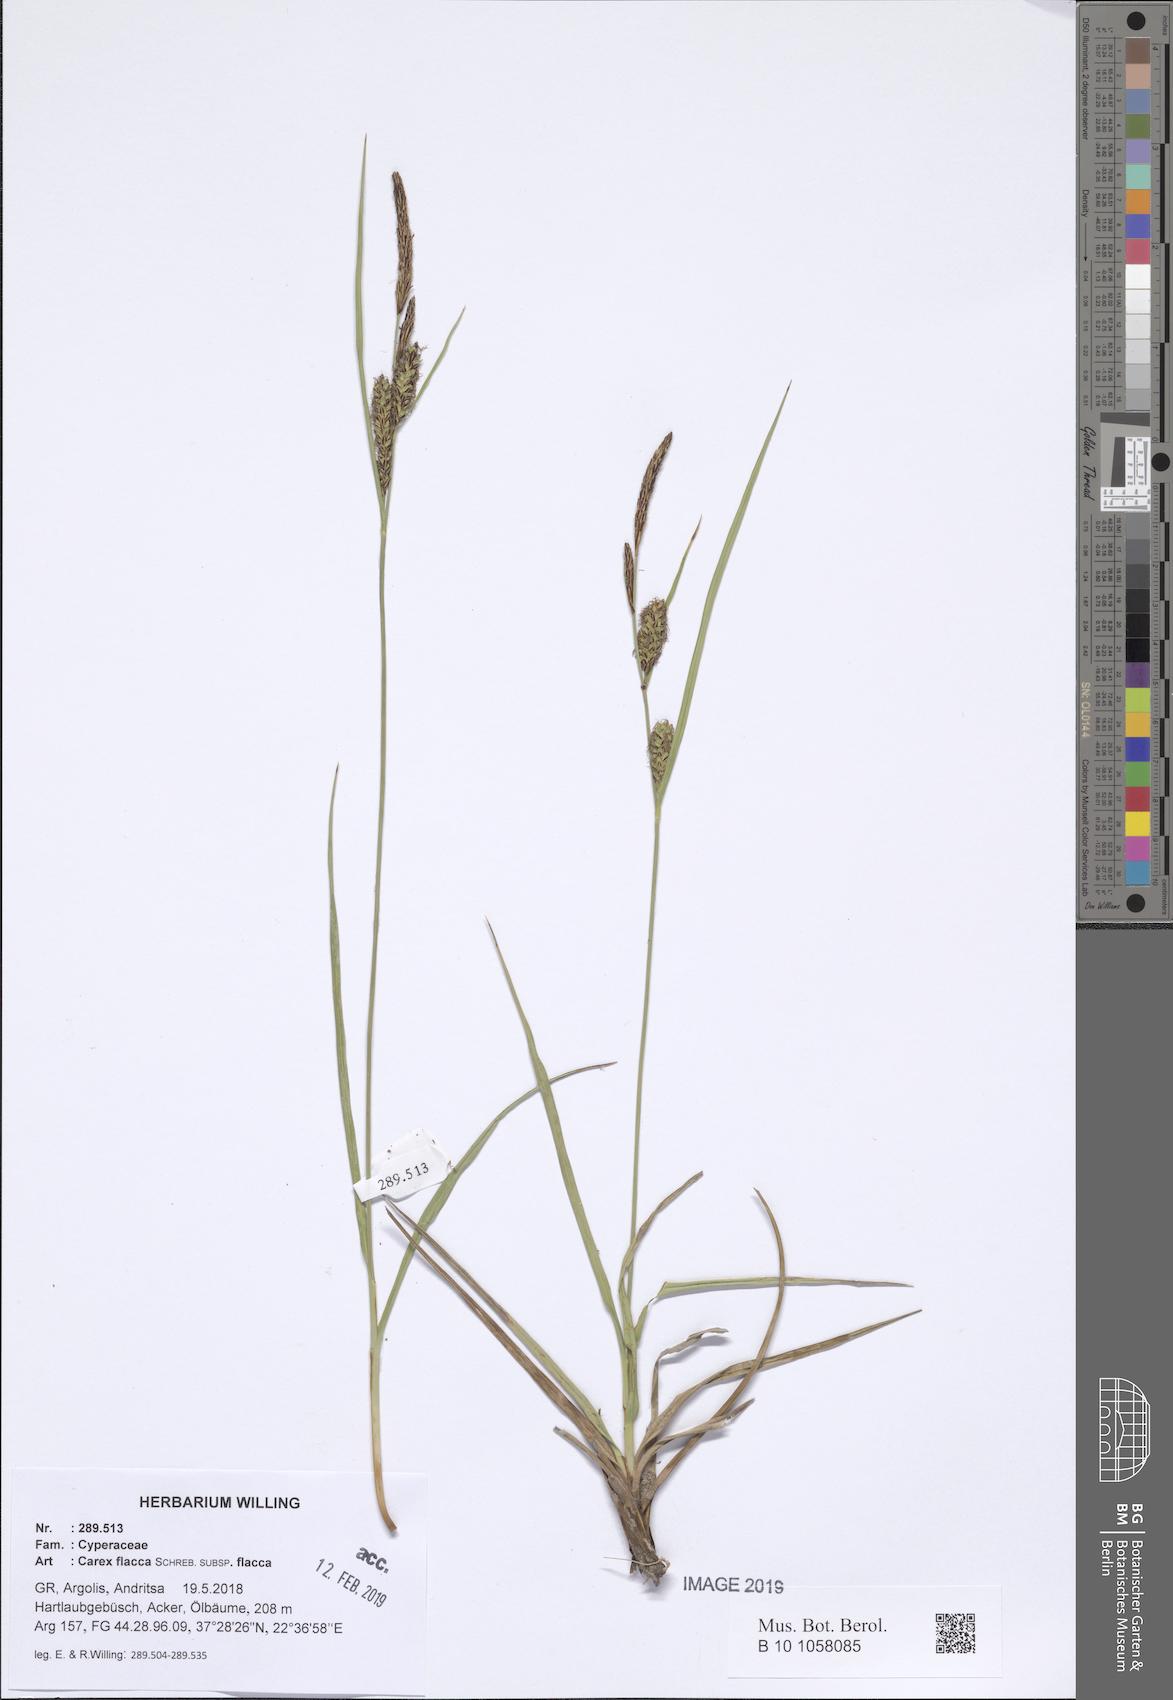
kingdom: Plantae
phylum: Tracheophyta
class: Liliopsida
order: Poales
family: Cyperaceae
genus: Carex
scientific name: Carex flacca
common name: Glaucous sedge
